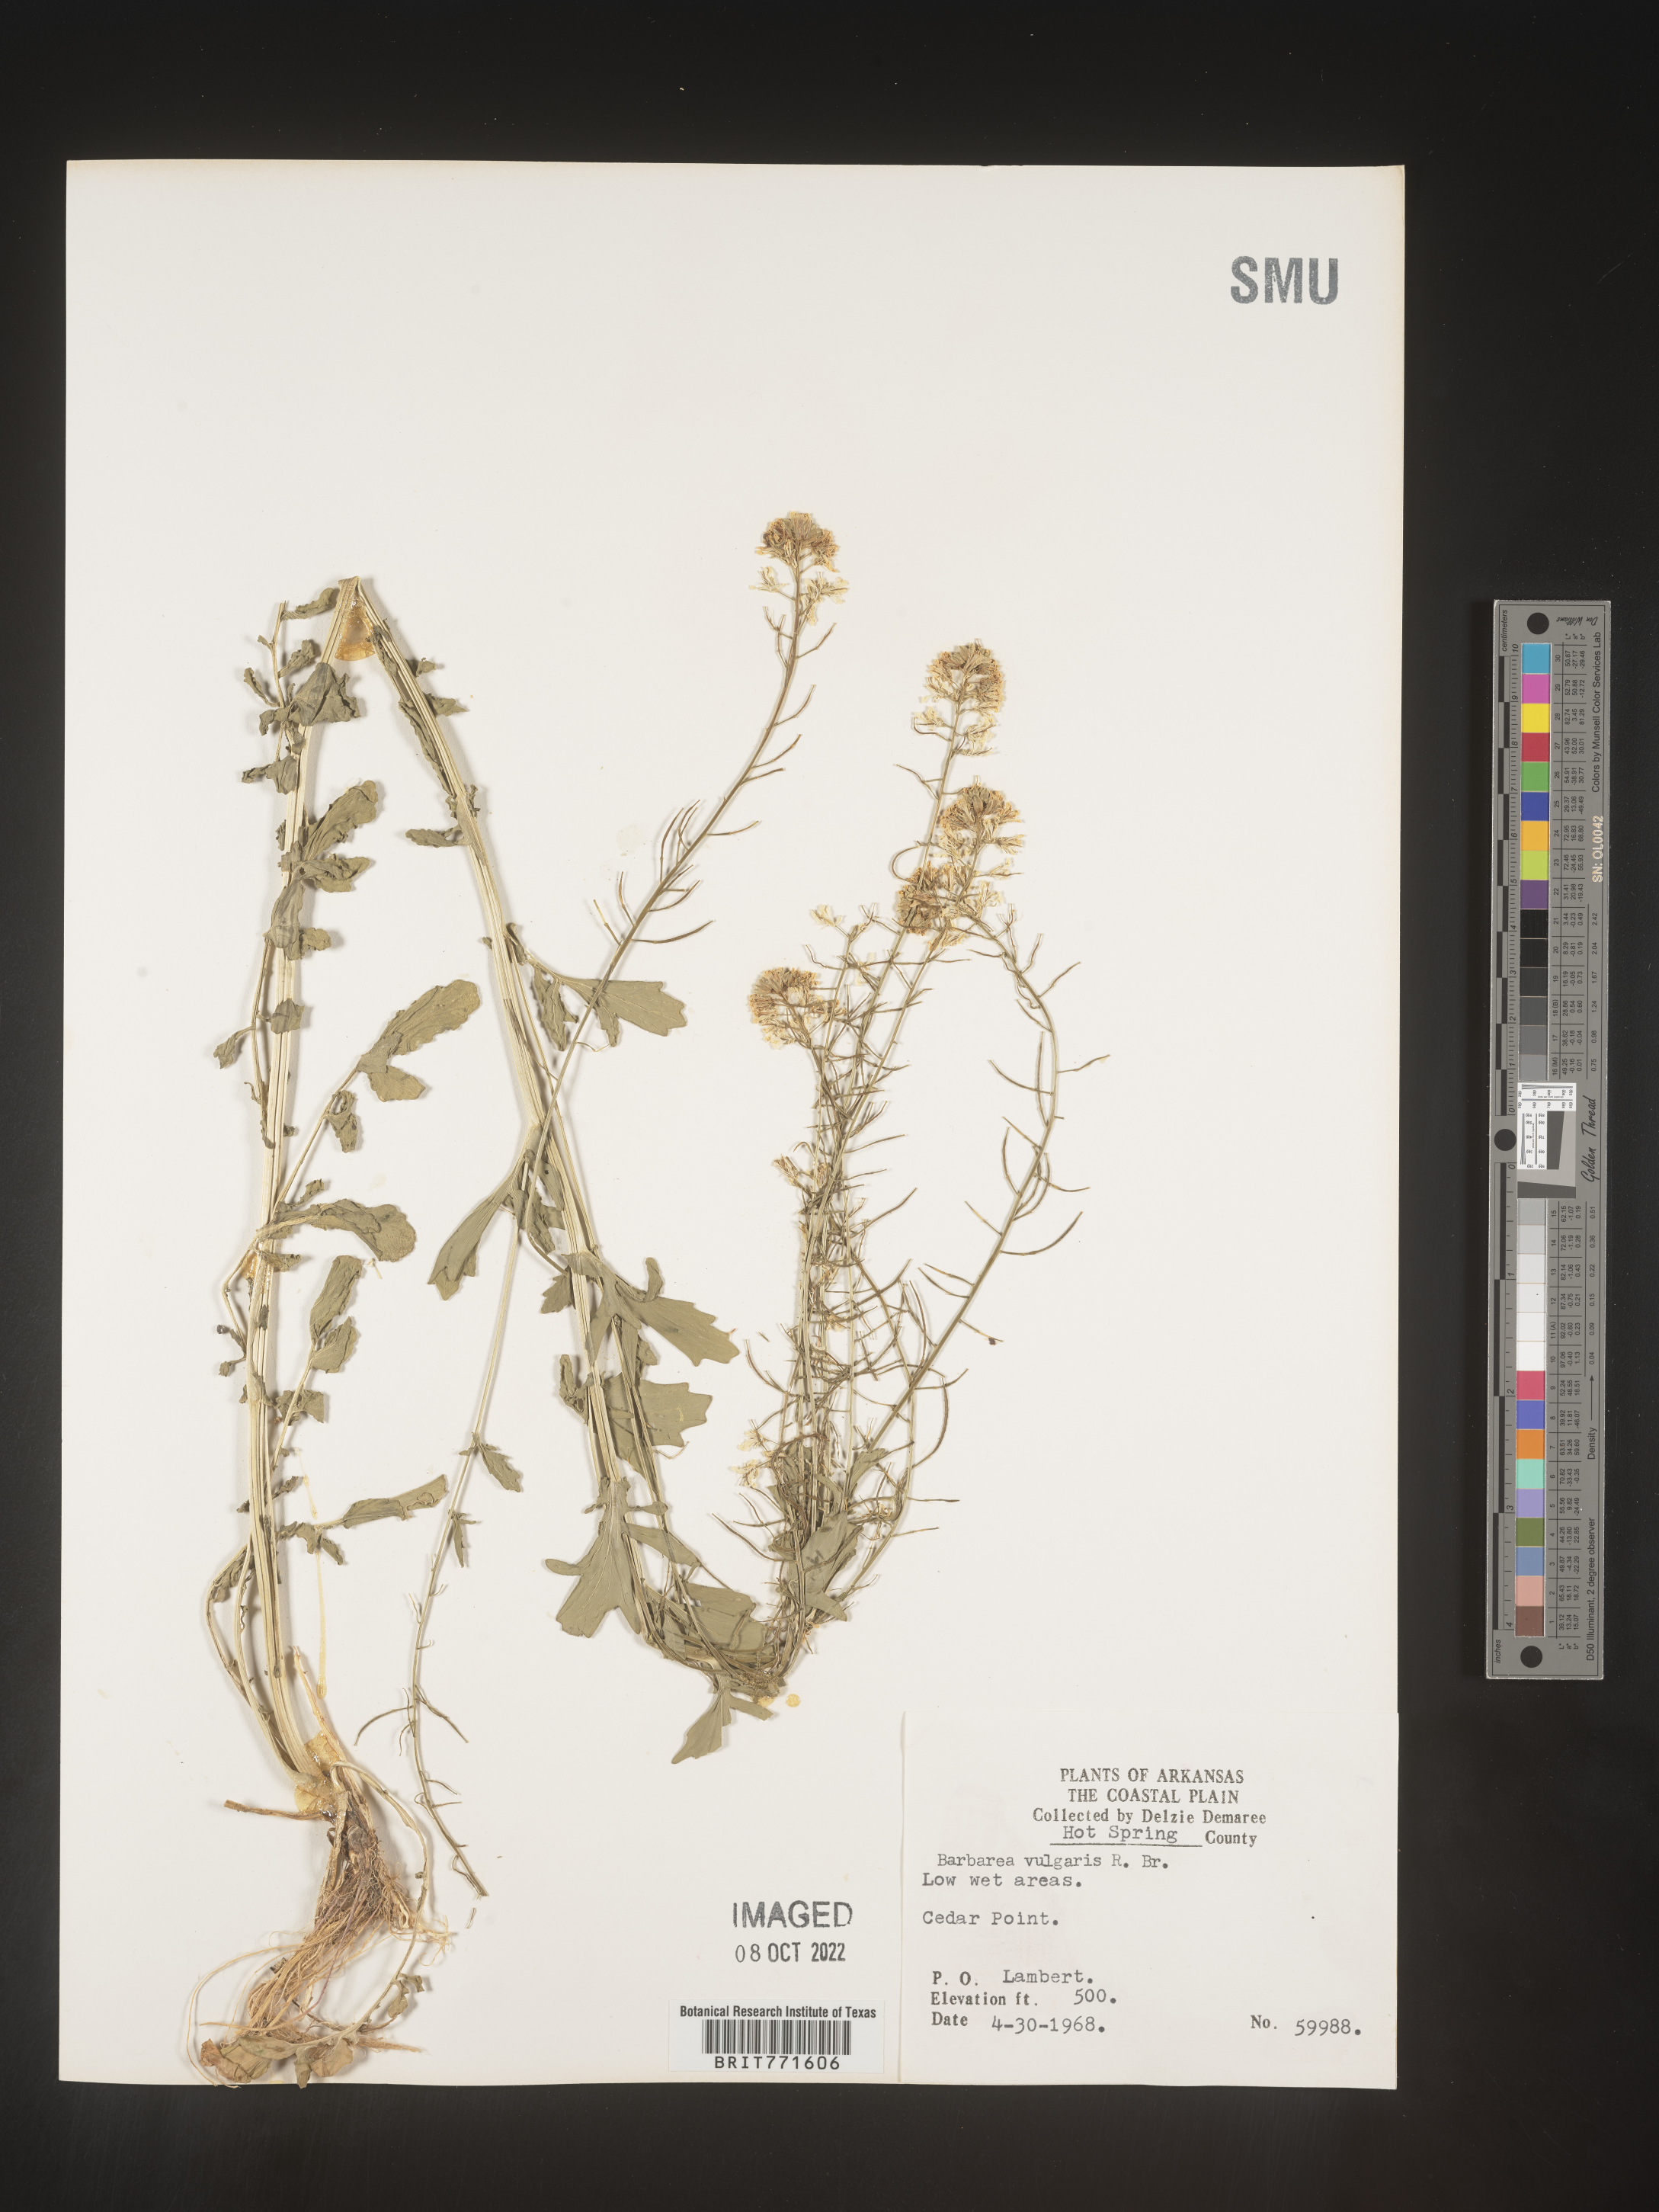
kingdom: Plantae
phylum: Tracheophyta
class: Magnoliopsida
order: Brassicales
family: Brassicaceae
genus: Barbarea
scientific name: Barbarea vulgaris
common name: Cressy-greens
